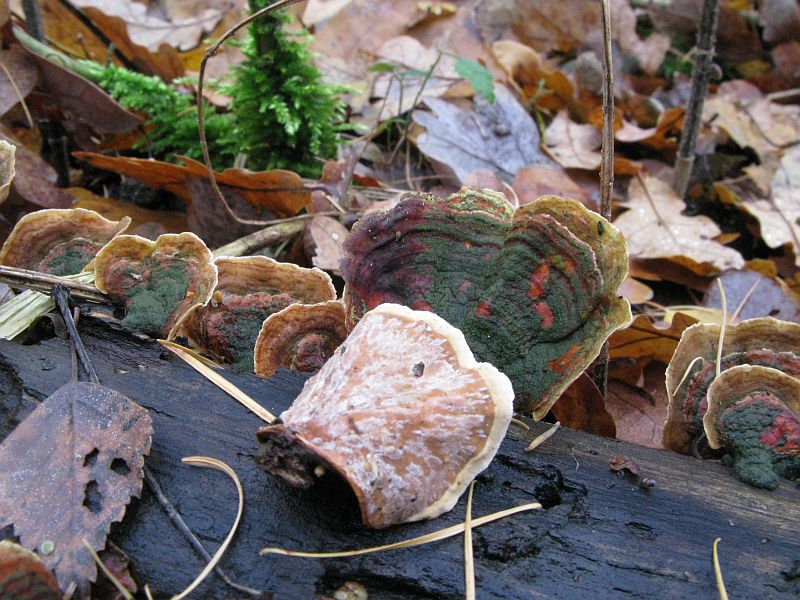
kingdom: Fungi
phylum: Basidiomycota
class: Agaricomycetes
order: Russulales
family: Stereaceae
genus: Stereum
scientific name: Stereum subtomentosum
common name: smuk lædersvamp
